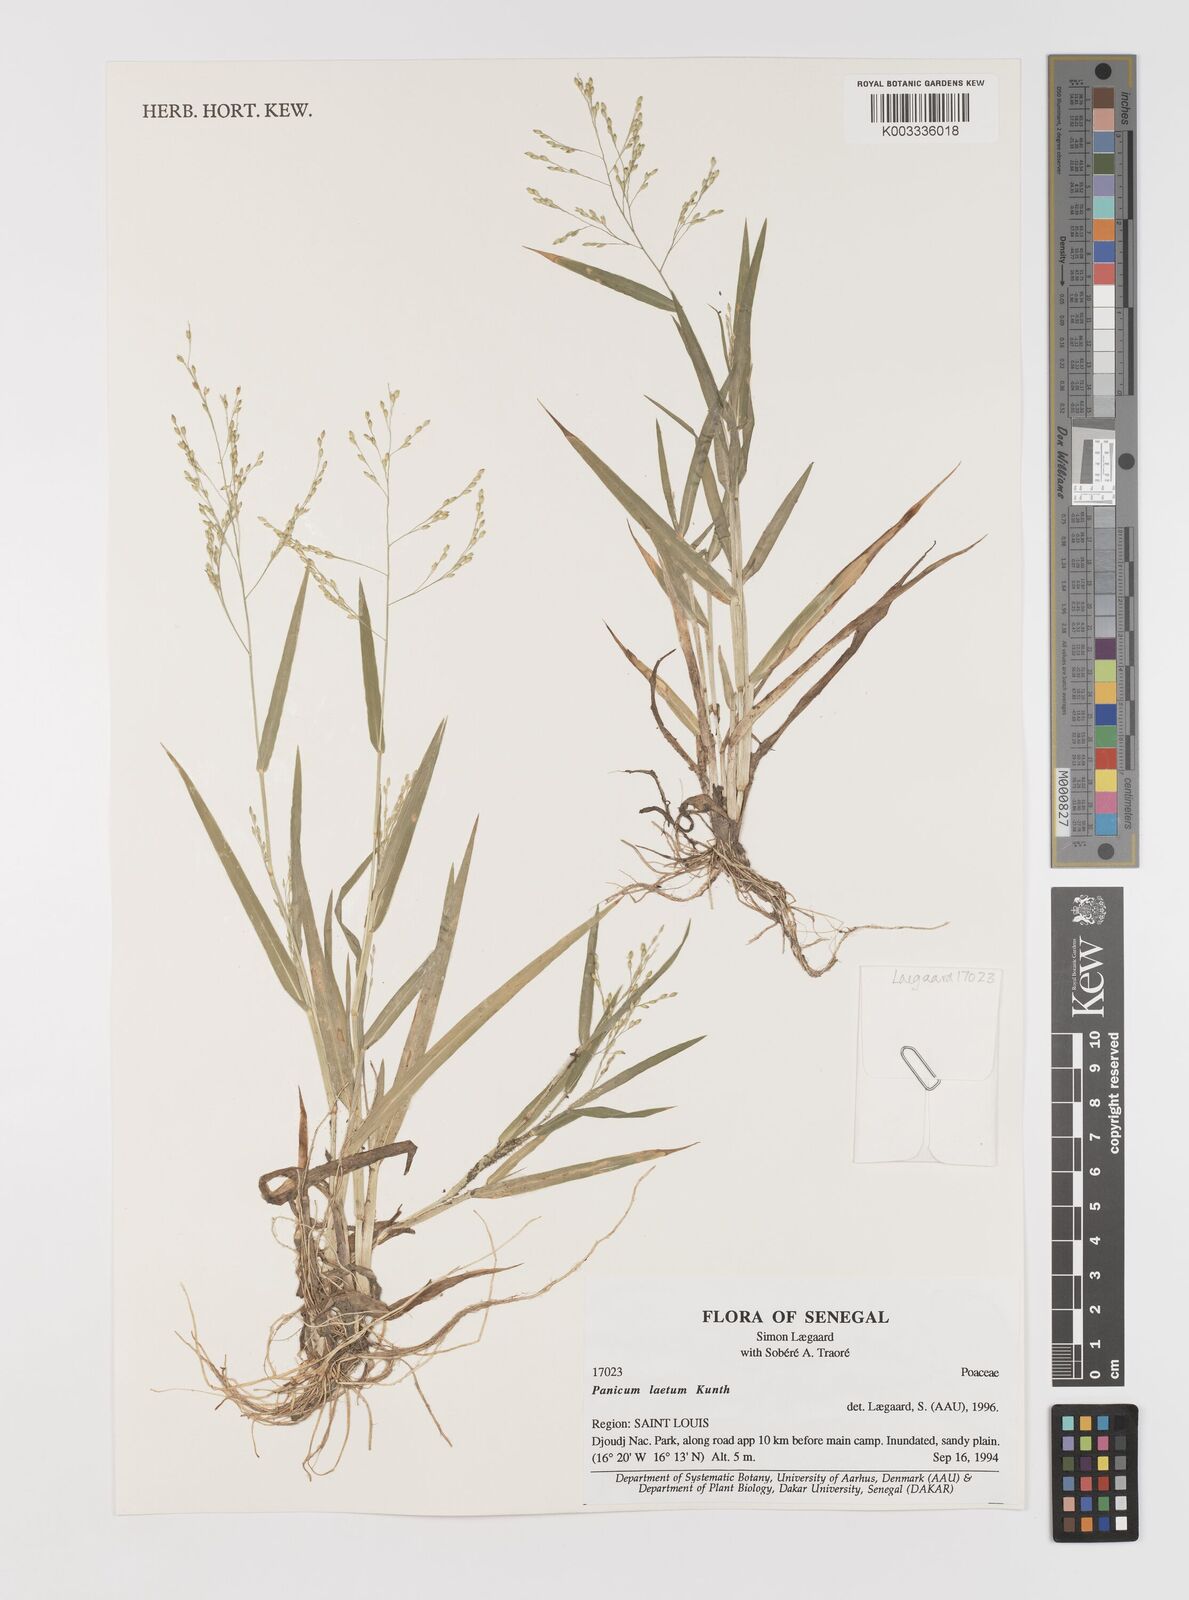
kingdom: Plantae
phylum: Tracheophyta
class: Liliopsida
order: Poales
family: Poaceae
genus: Panicum
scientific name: Panicum laetum
